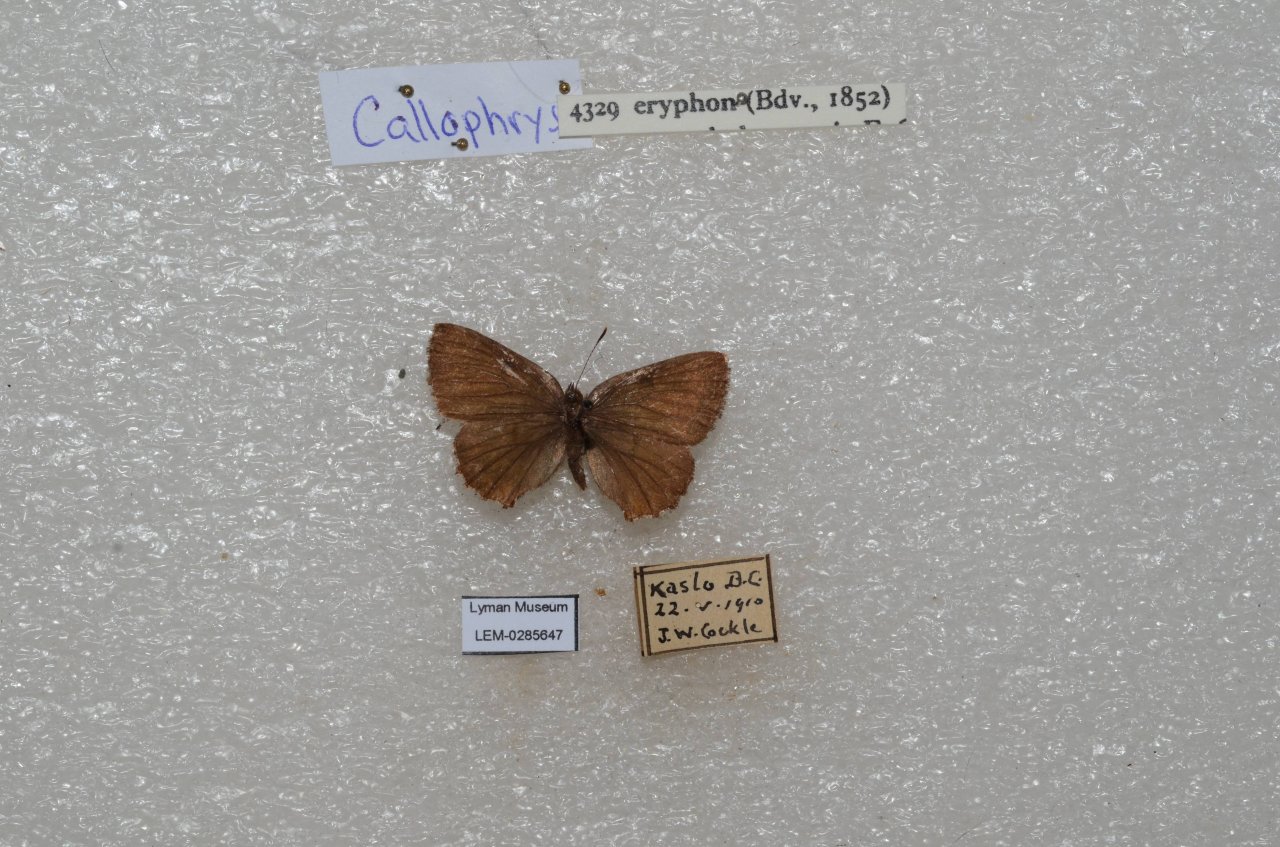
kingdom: Animalia
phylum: Arthropoda
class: Insecta
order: Lepidoptera
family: Lycaenidae
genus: Incisalia
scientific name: Incisalia eryphon
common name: Western Pine Elfin
